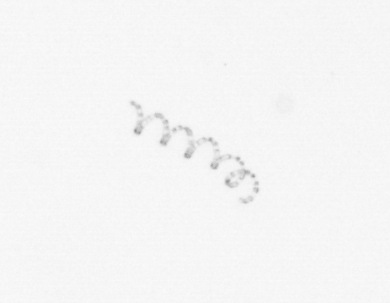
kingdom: Chromista
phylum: Ochrophyta
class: Bacillariophyceae
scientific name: Bacillariophyceae
